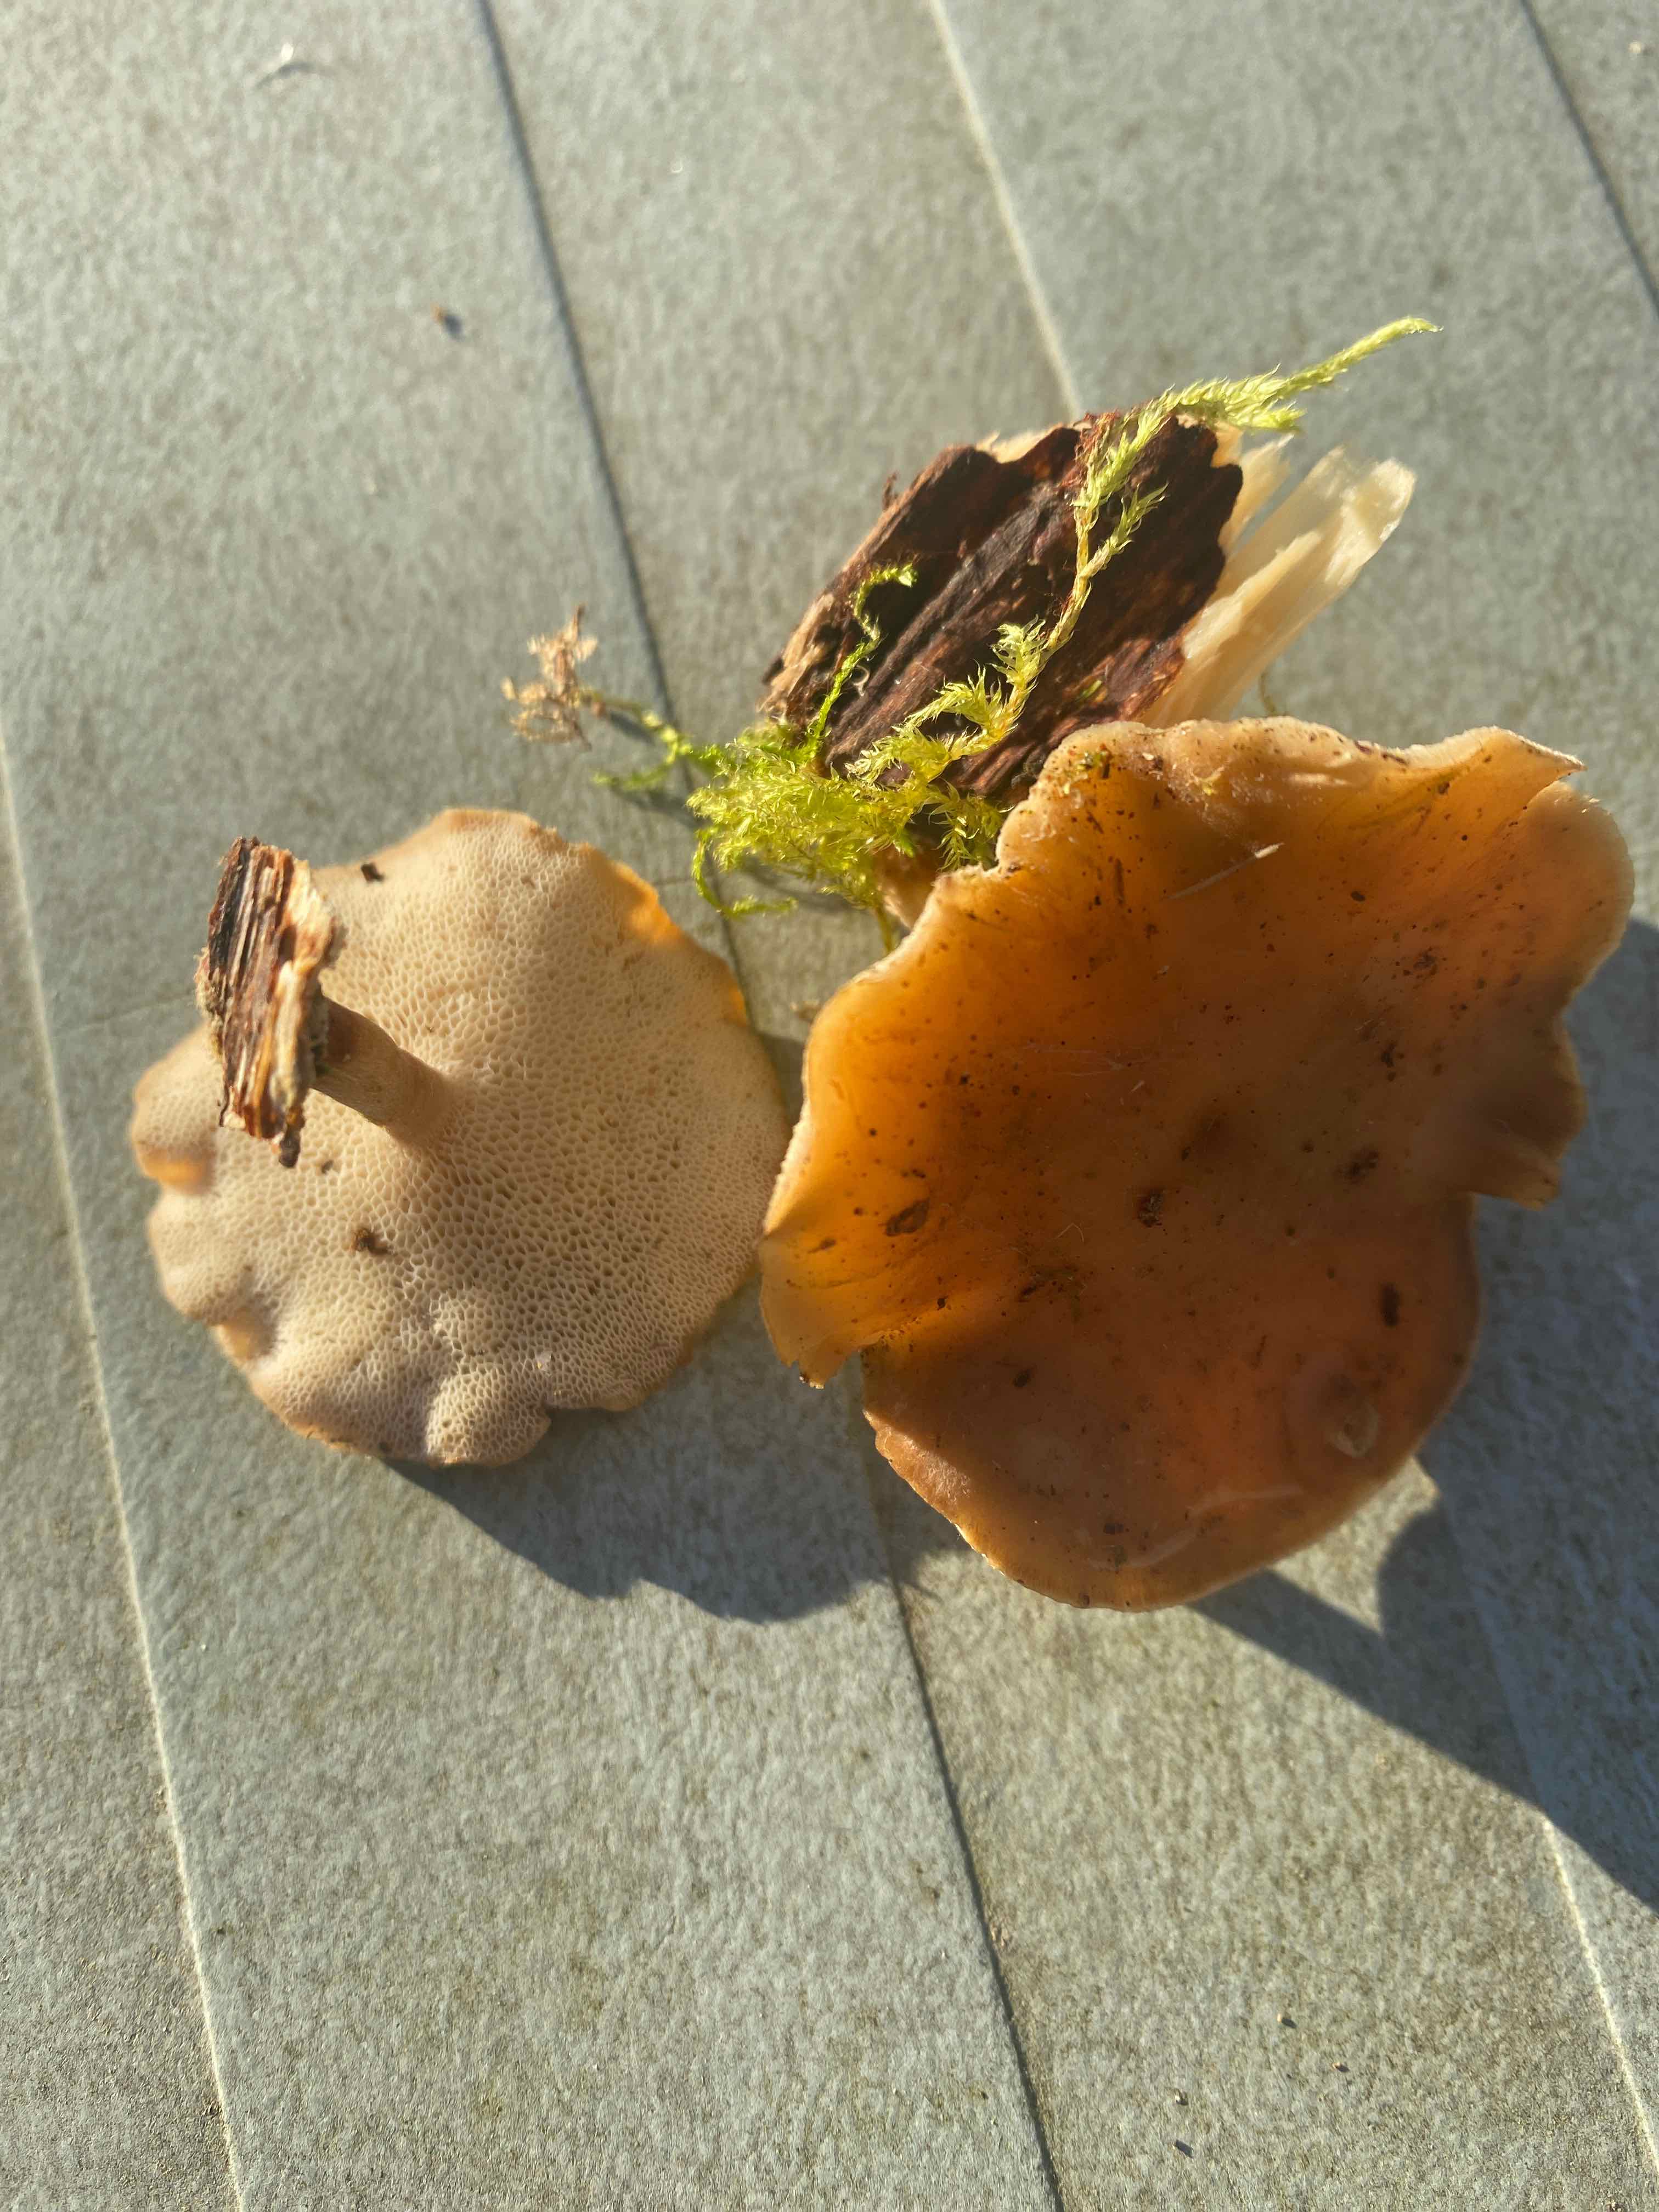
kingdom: Fungi
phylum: Basidiomycota
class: Agaricomycetes
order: Polyporales
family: Polyporaceae
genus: Lentinus
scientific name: Lentinus brumalis
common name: vinter-stilkporesvamp
